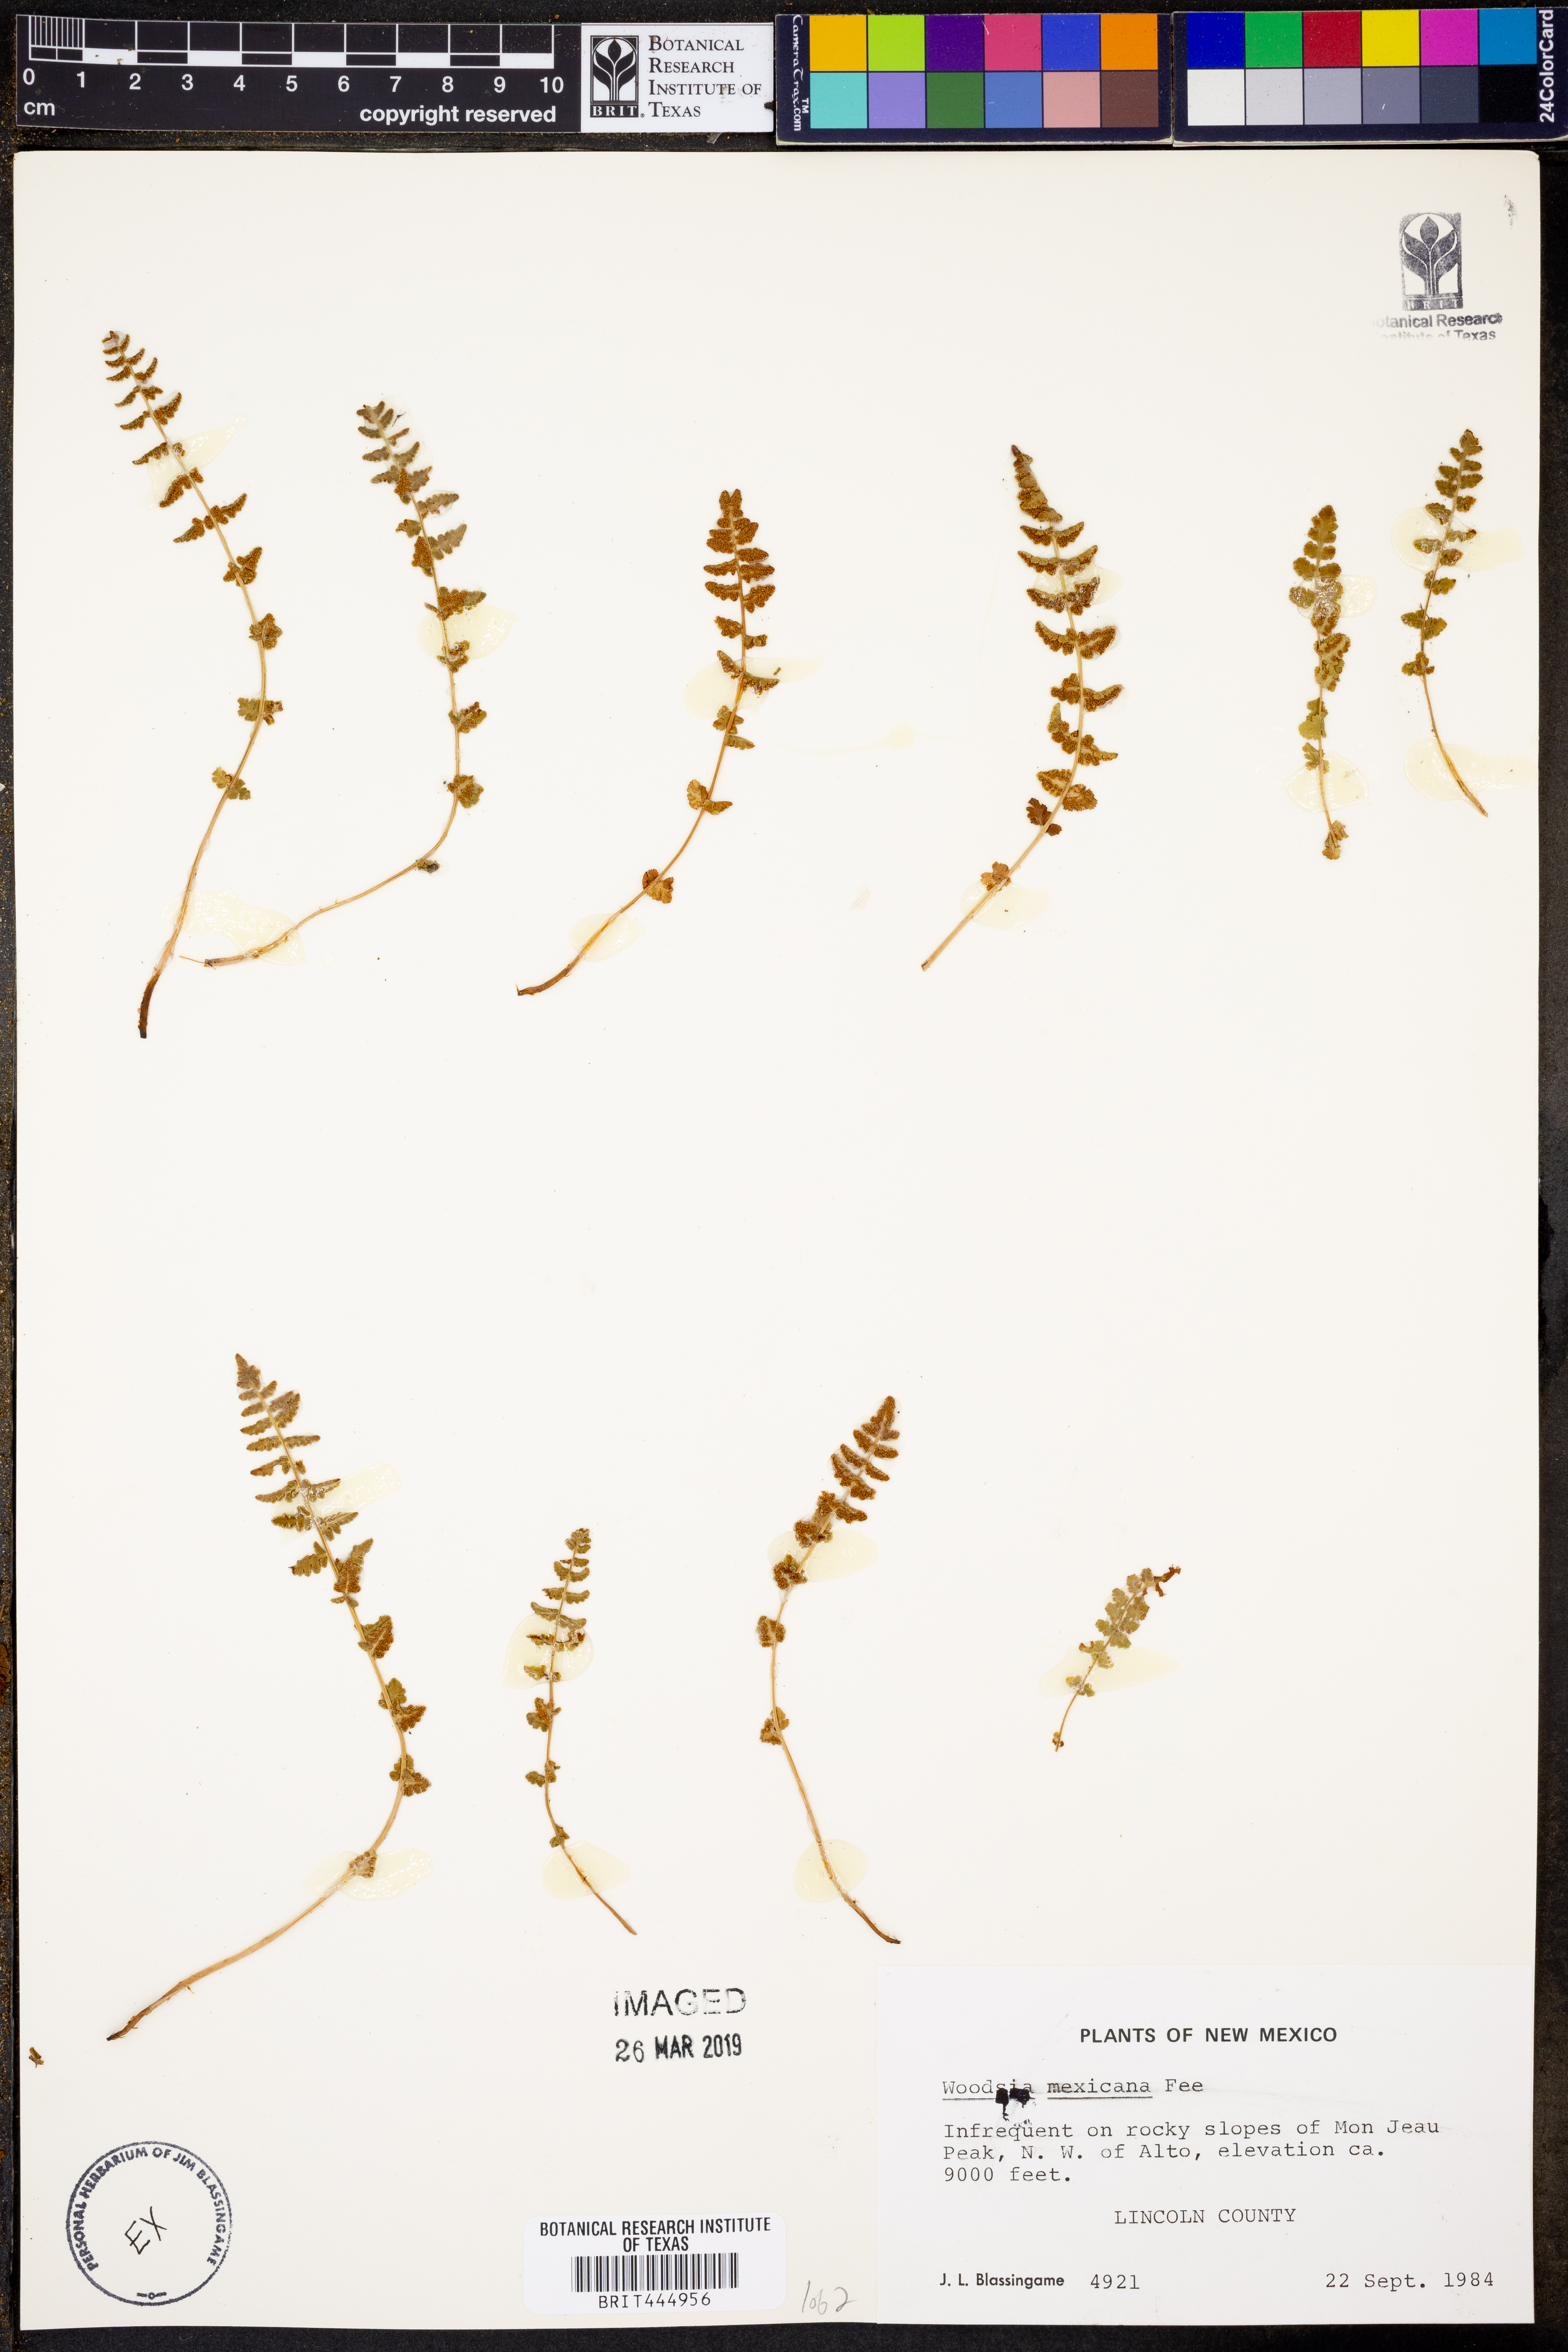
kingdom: Plantae
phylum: Tracheophyta
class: Polypodiopsida
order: Polypodiales
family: Woodsiaceae
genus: Physematium
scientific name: Physematium mexicanum
